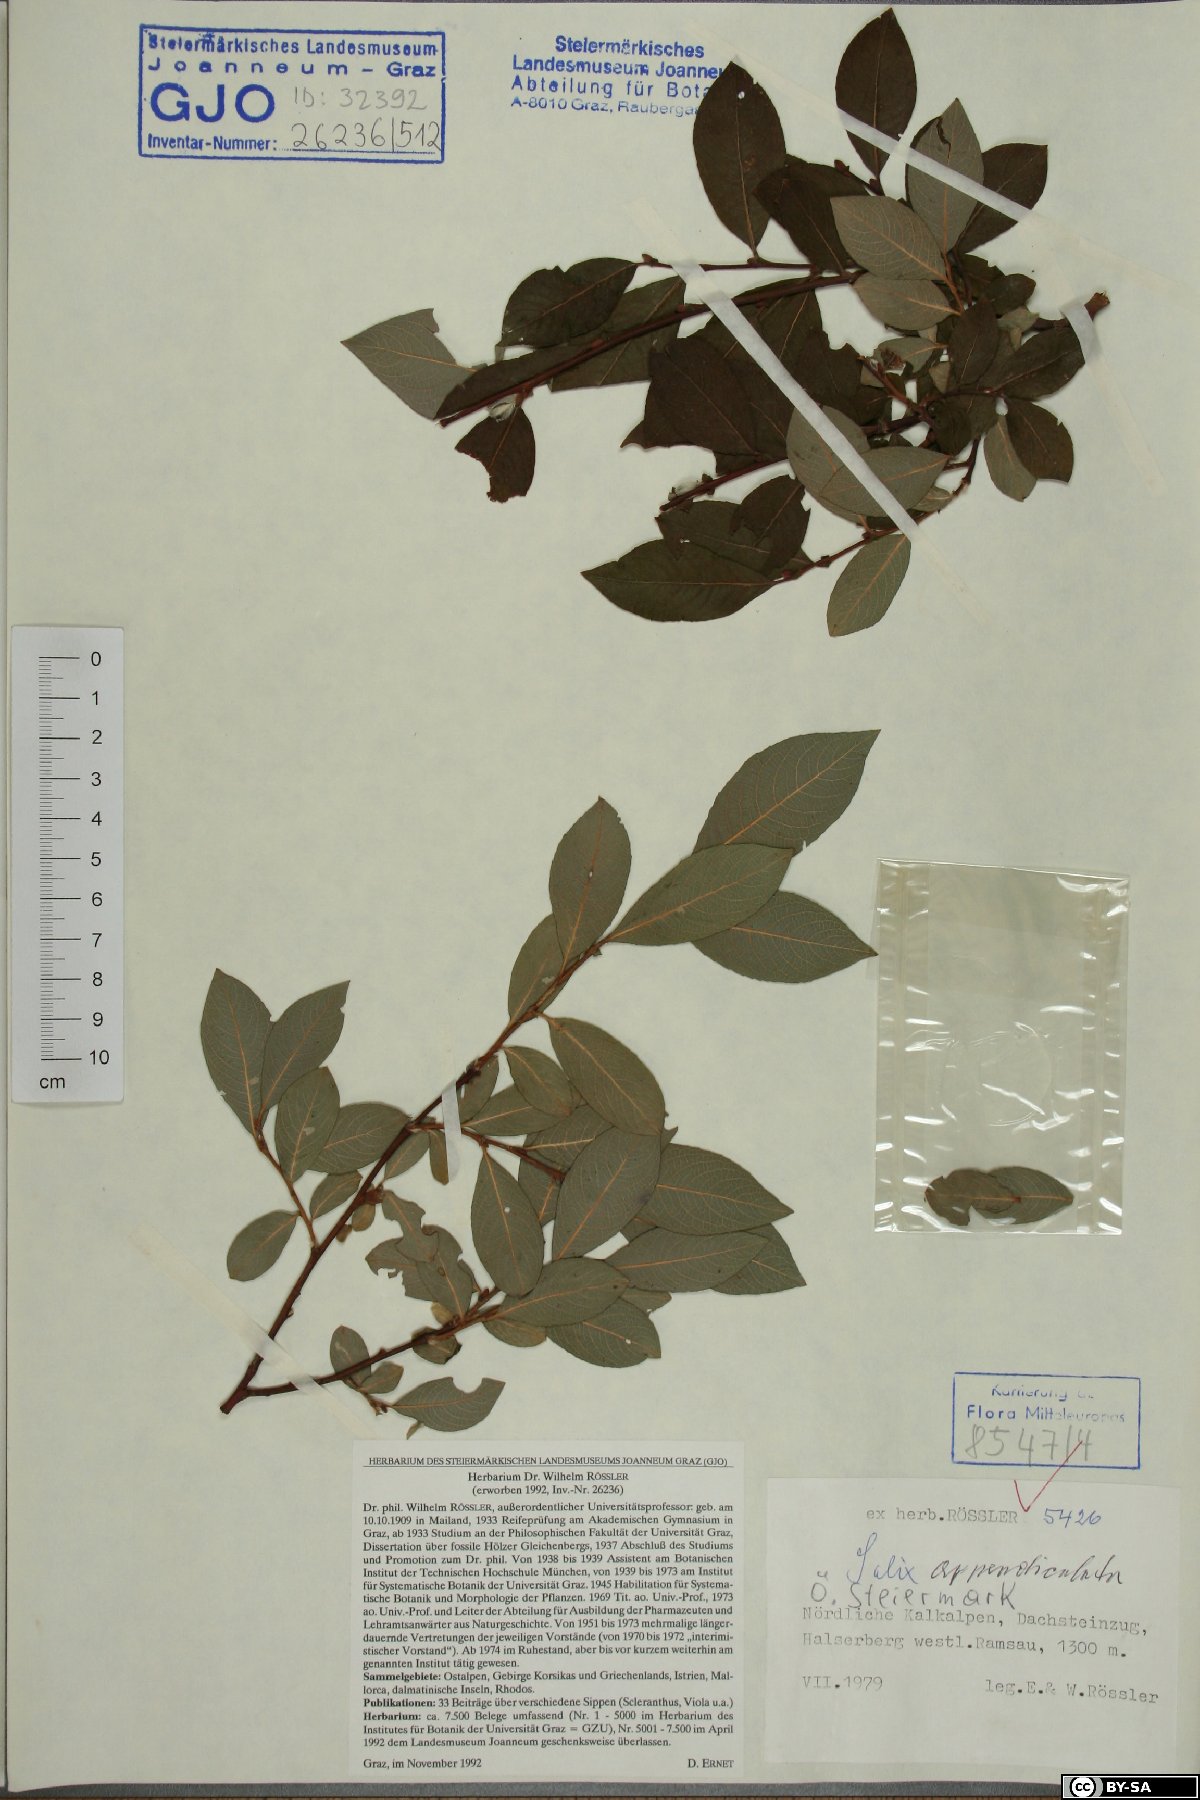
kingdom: Plantae
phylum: Tracheophyta
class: Magnoliopsida
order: Malpighiales
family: Salicaceae
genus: Salix
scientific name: Salix appendiculata
